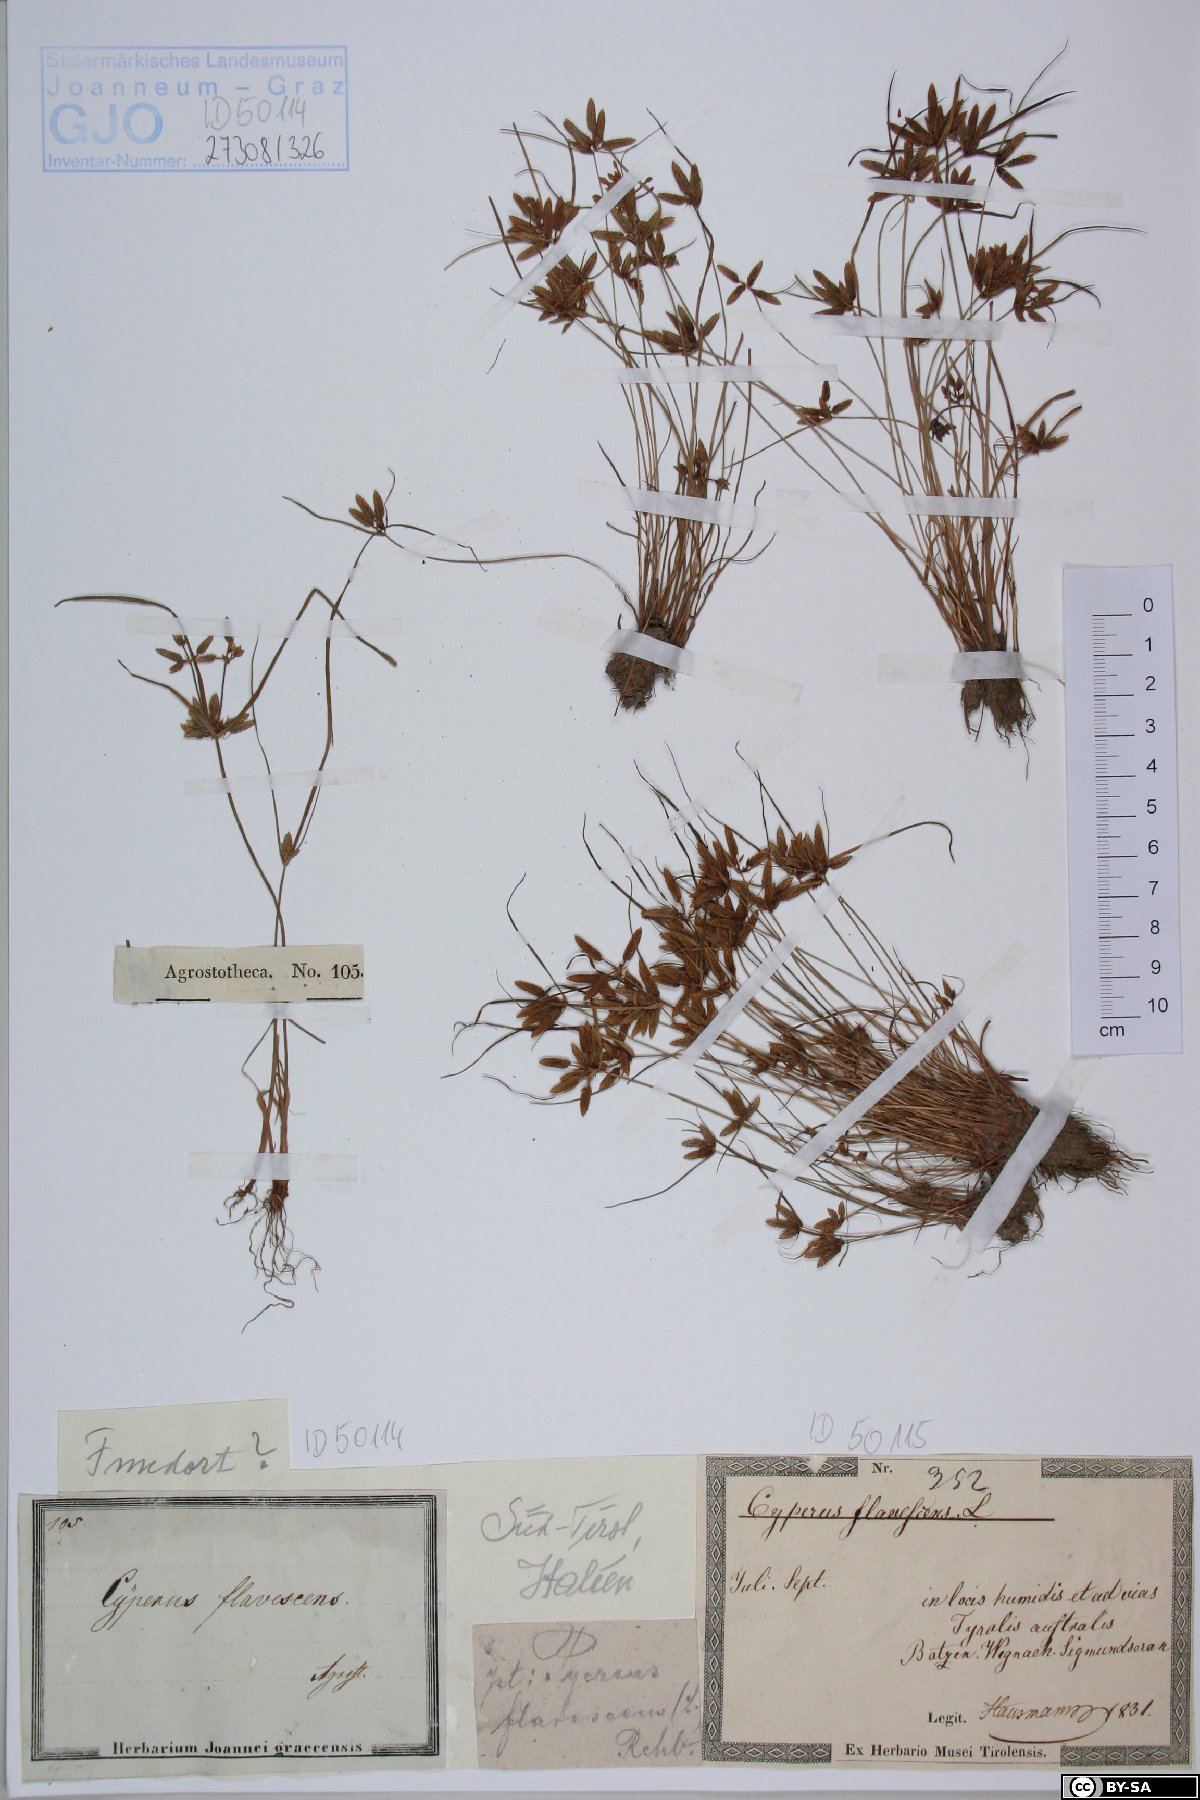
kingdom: Plantae
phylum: Tracheophyta
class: Liliopsida
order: Poales
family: Cyperaceae
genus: Cyperus
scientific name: Cyperus flavescens
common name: Yellow galingale
